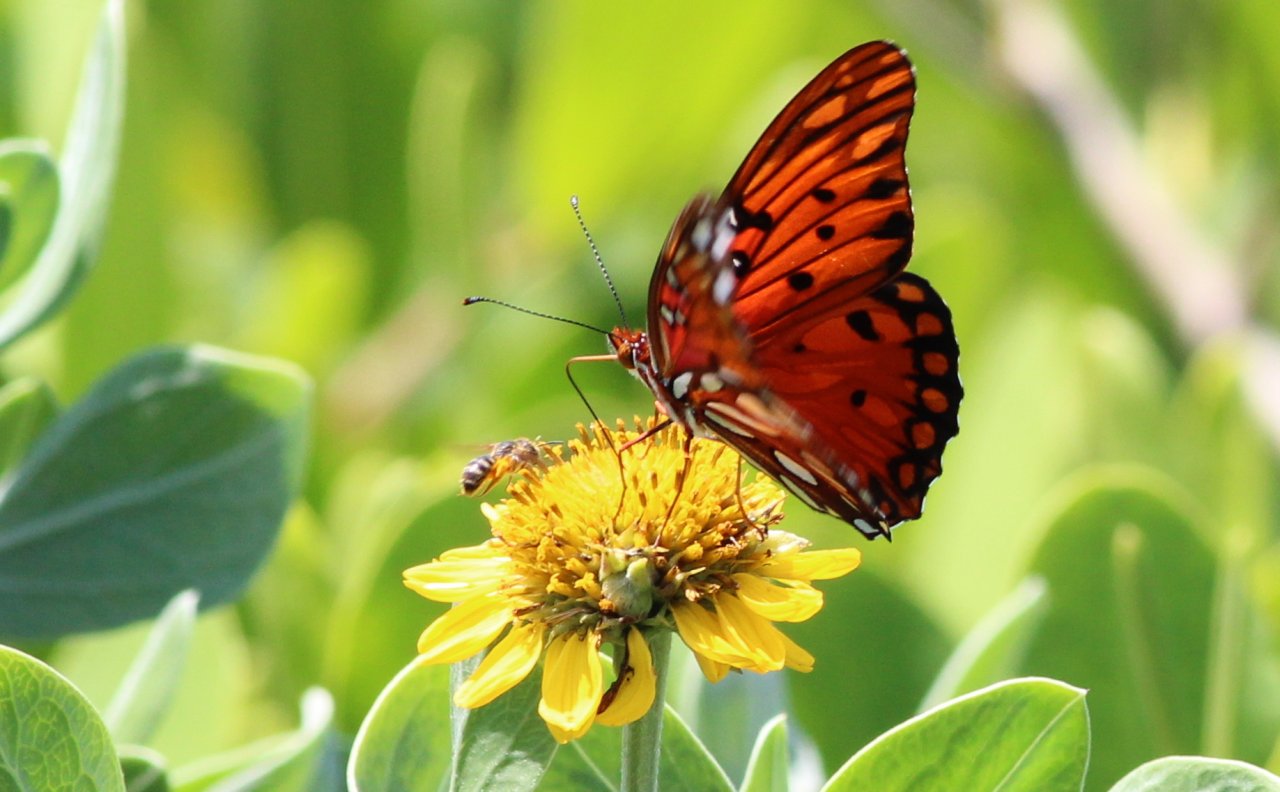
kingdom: Animalia
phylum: Arthropoda
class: Insecta
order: Lepidoptera
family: Nymphalidae
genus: Dione
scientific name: Dione vanillae
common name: Gulf Fritillary
